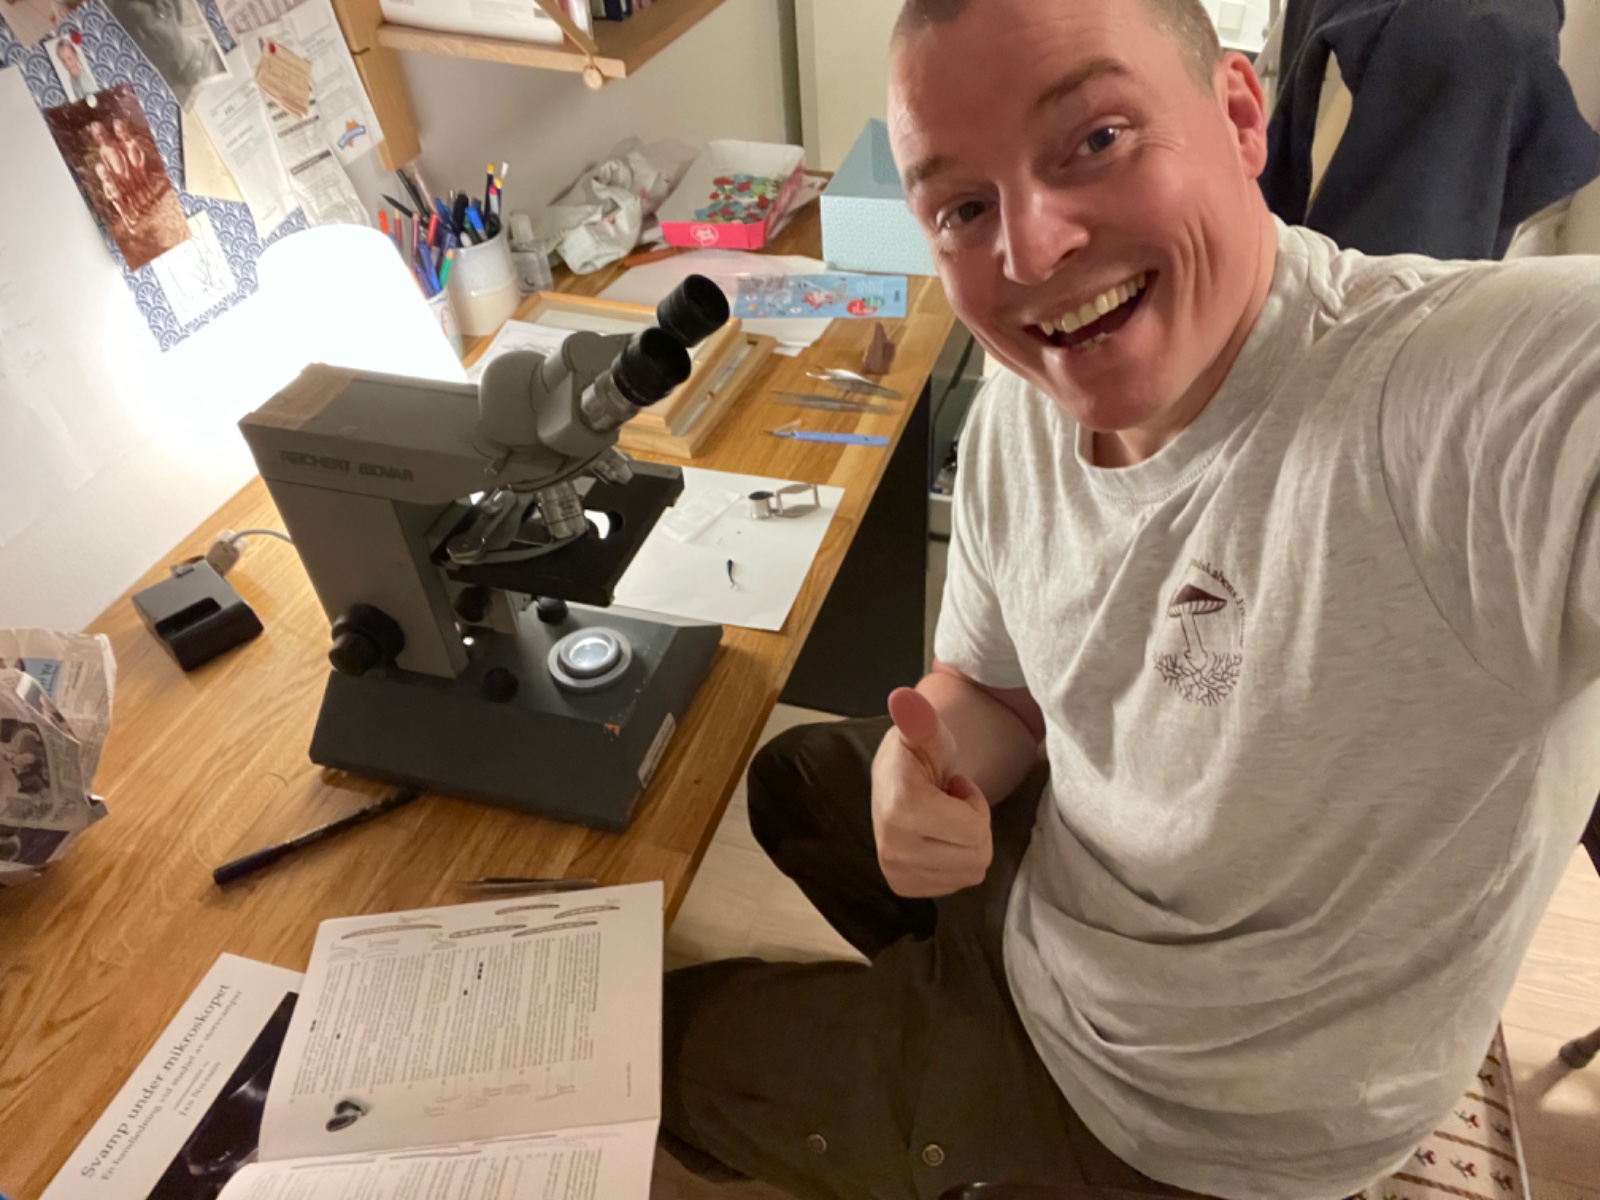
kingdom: Fungi
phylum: Ascomycota
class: Geoglossomycetes
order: Geoglossales
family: Geoglossaceae
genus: Glutinoglossum
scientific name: Glutinoglossum glutinosum
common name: slimet jordtunge
